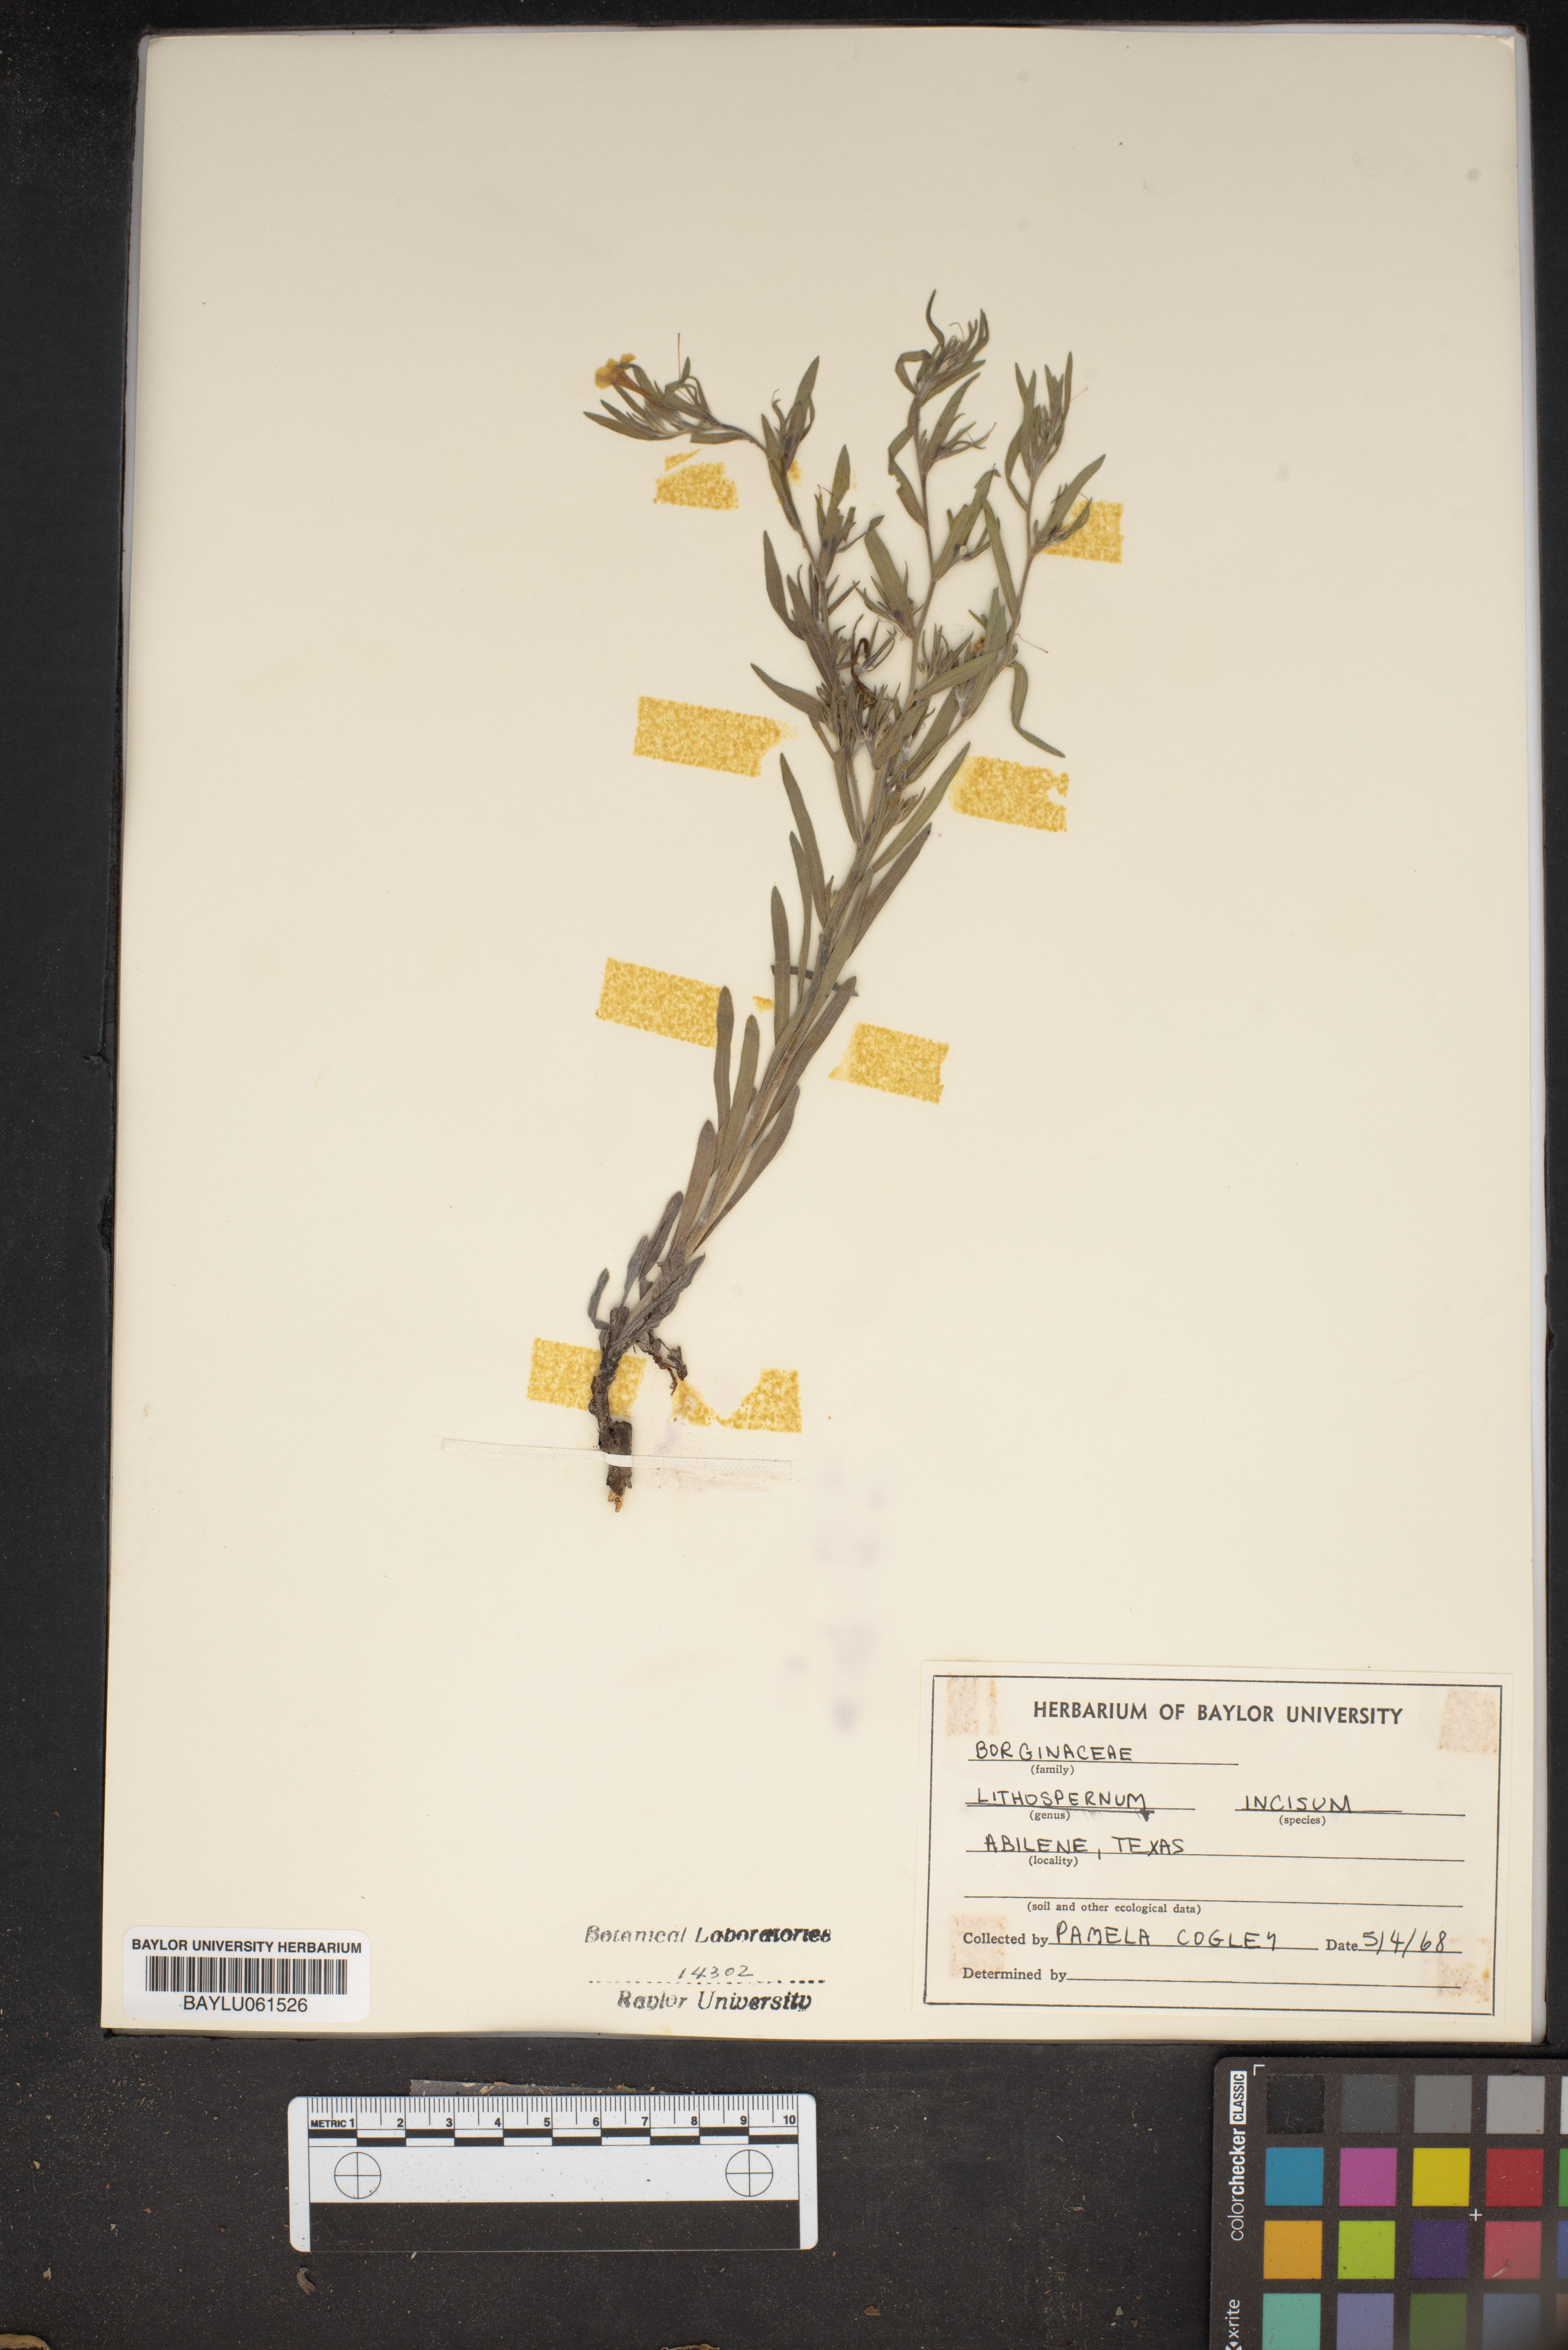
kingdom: Plantae
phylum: Tracheophyta
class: Magnoliopsida
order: Boraginales
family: Boraginaceae
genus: Lithospermum
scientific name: Lithospermum incisum
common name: Fringed gromwell
